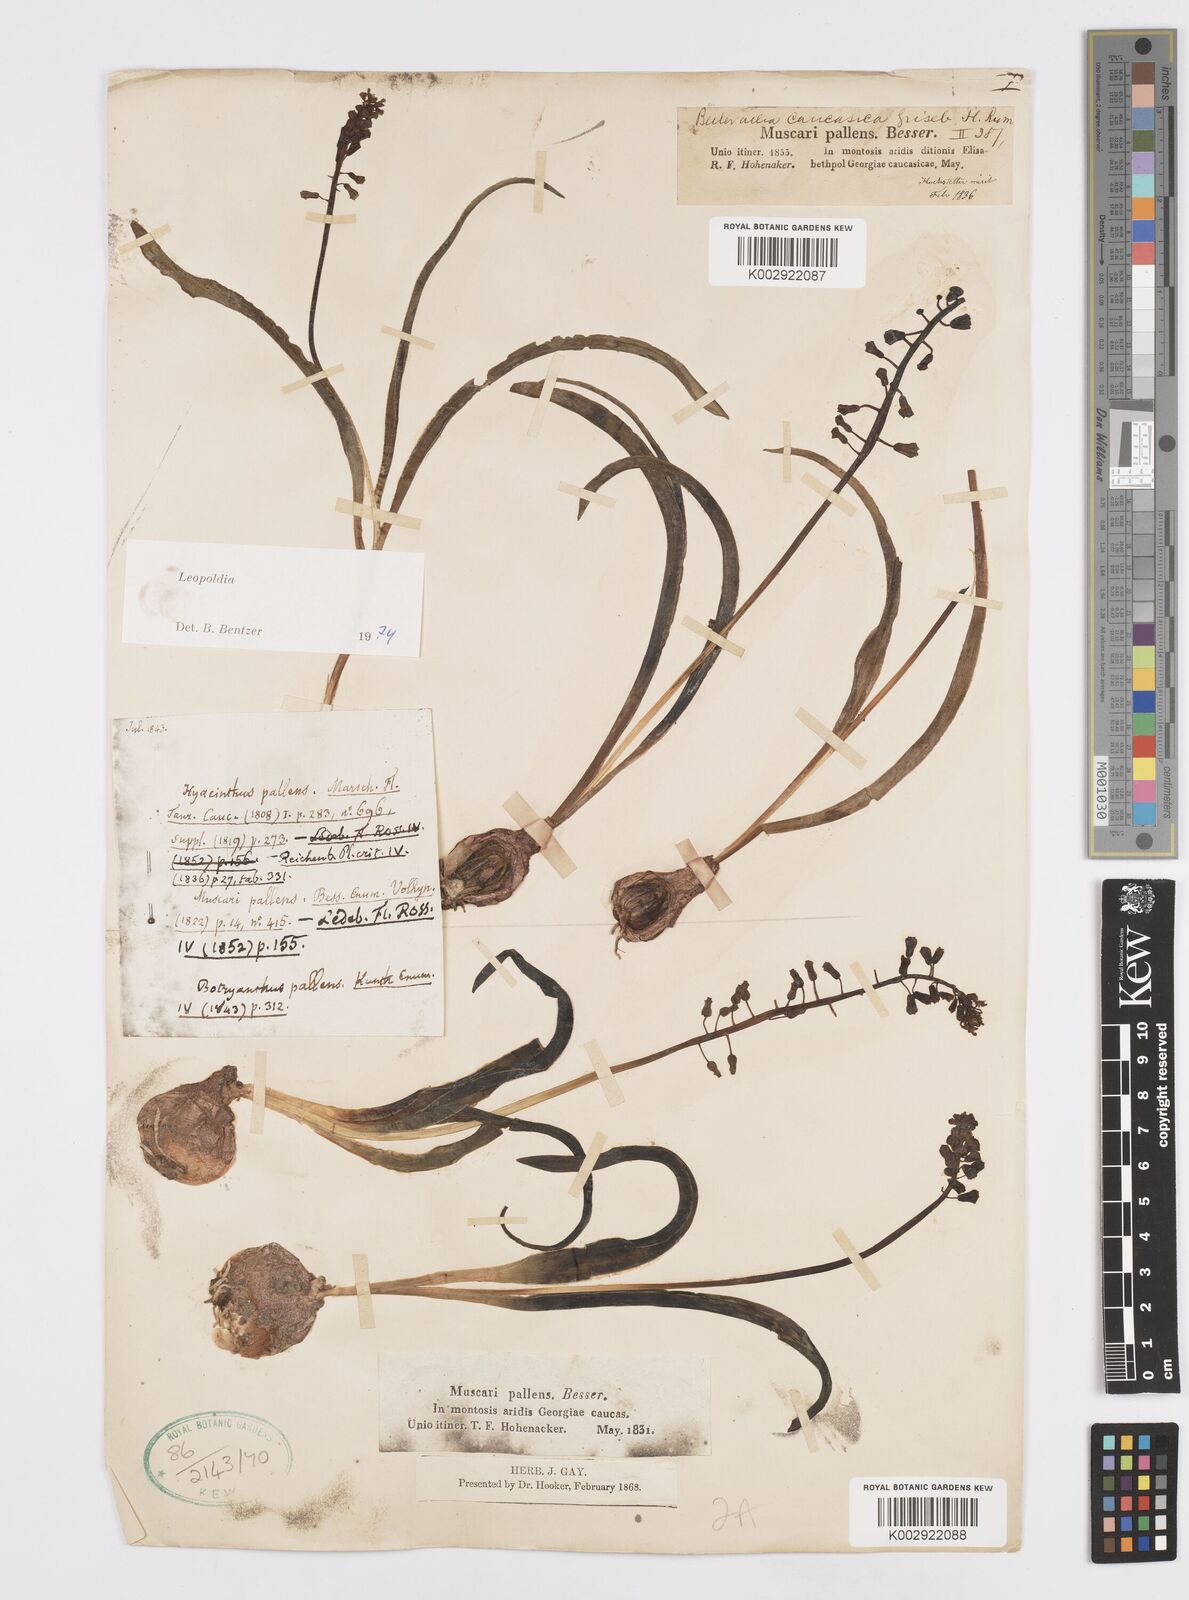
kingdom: Plantae
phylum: Tracheophyta
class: Liliopsida
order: Asparagales
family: Asparagaceae
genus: Muscari
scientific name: Muscari caucasicum
